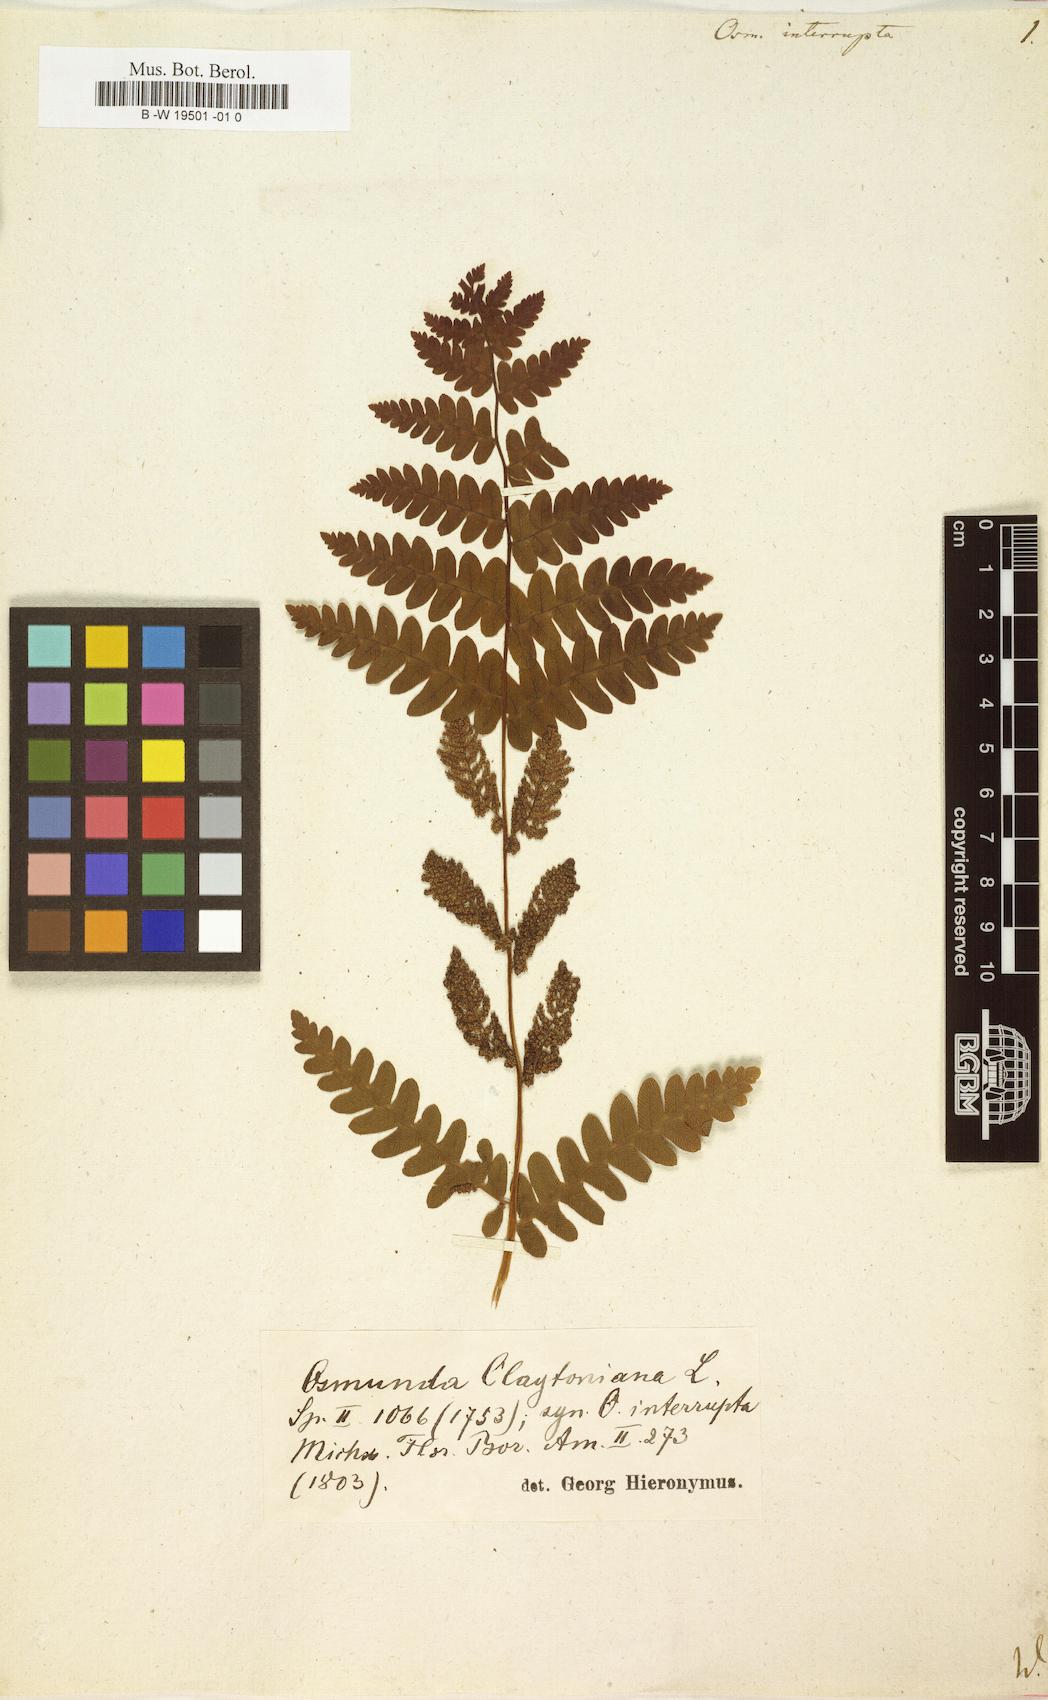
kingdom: Plantae
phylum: Tracheophyta
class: Polypodiopsida
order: Osmundales
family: Osmundaceae
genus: Claytosmunda
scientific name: Claytosmunda claytoniana
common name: Clayton's fern
